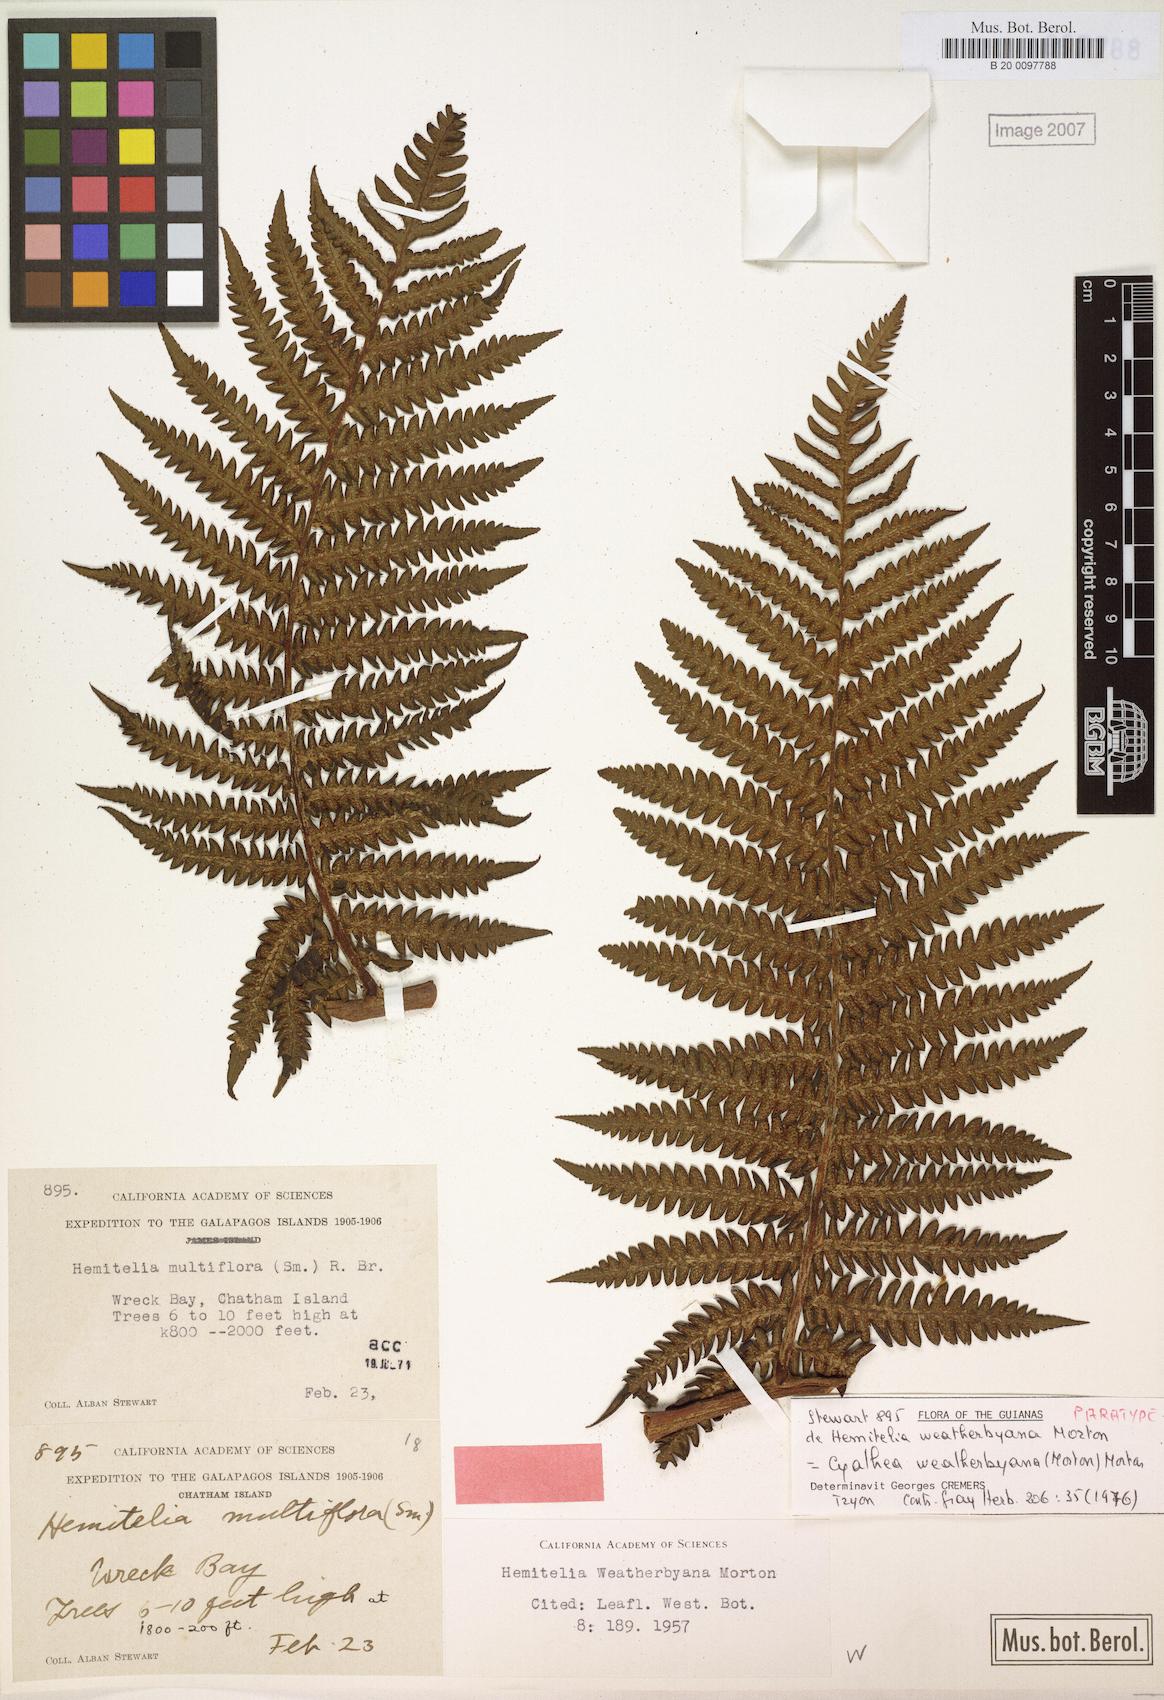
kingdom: Plantae
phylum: Tracheophyta
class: Polypodiopsida
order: Cyatheales
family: Cyatheaceae
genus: Cyathea
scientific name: Cyathea weatherbyana
